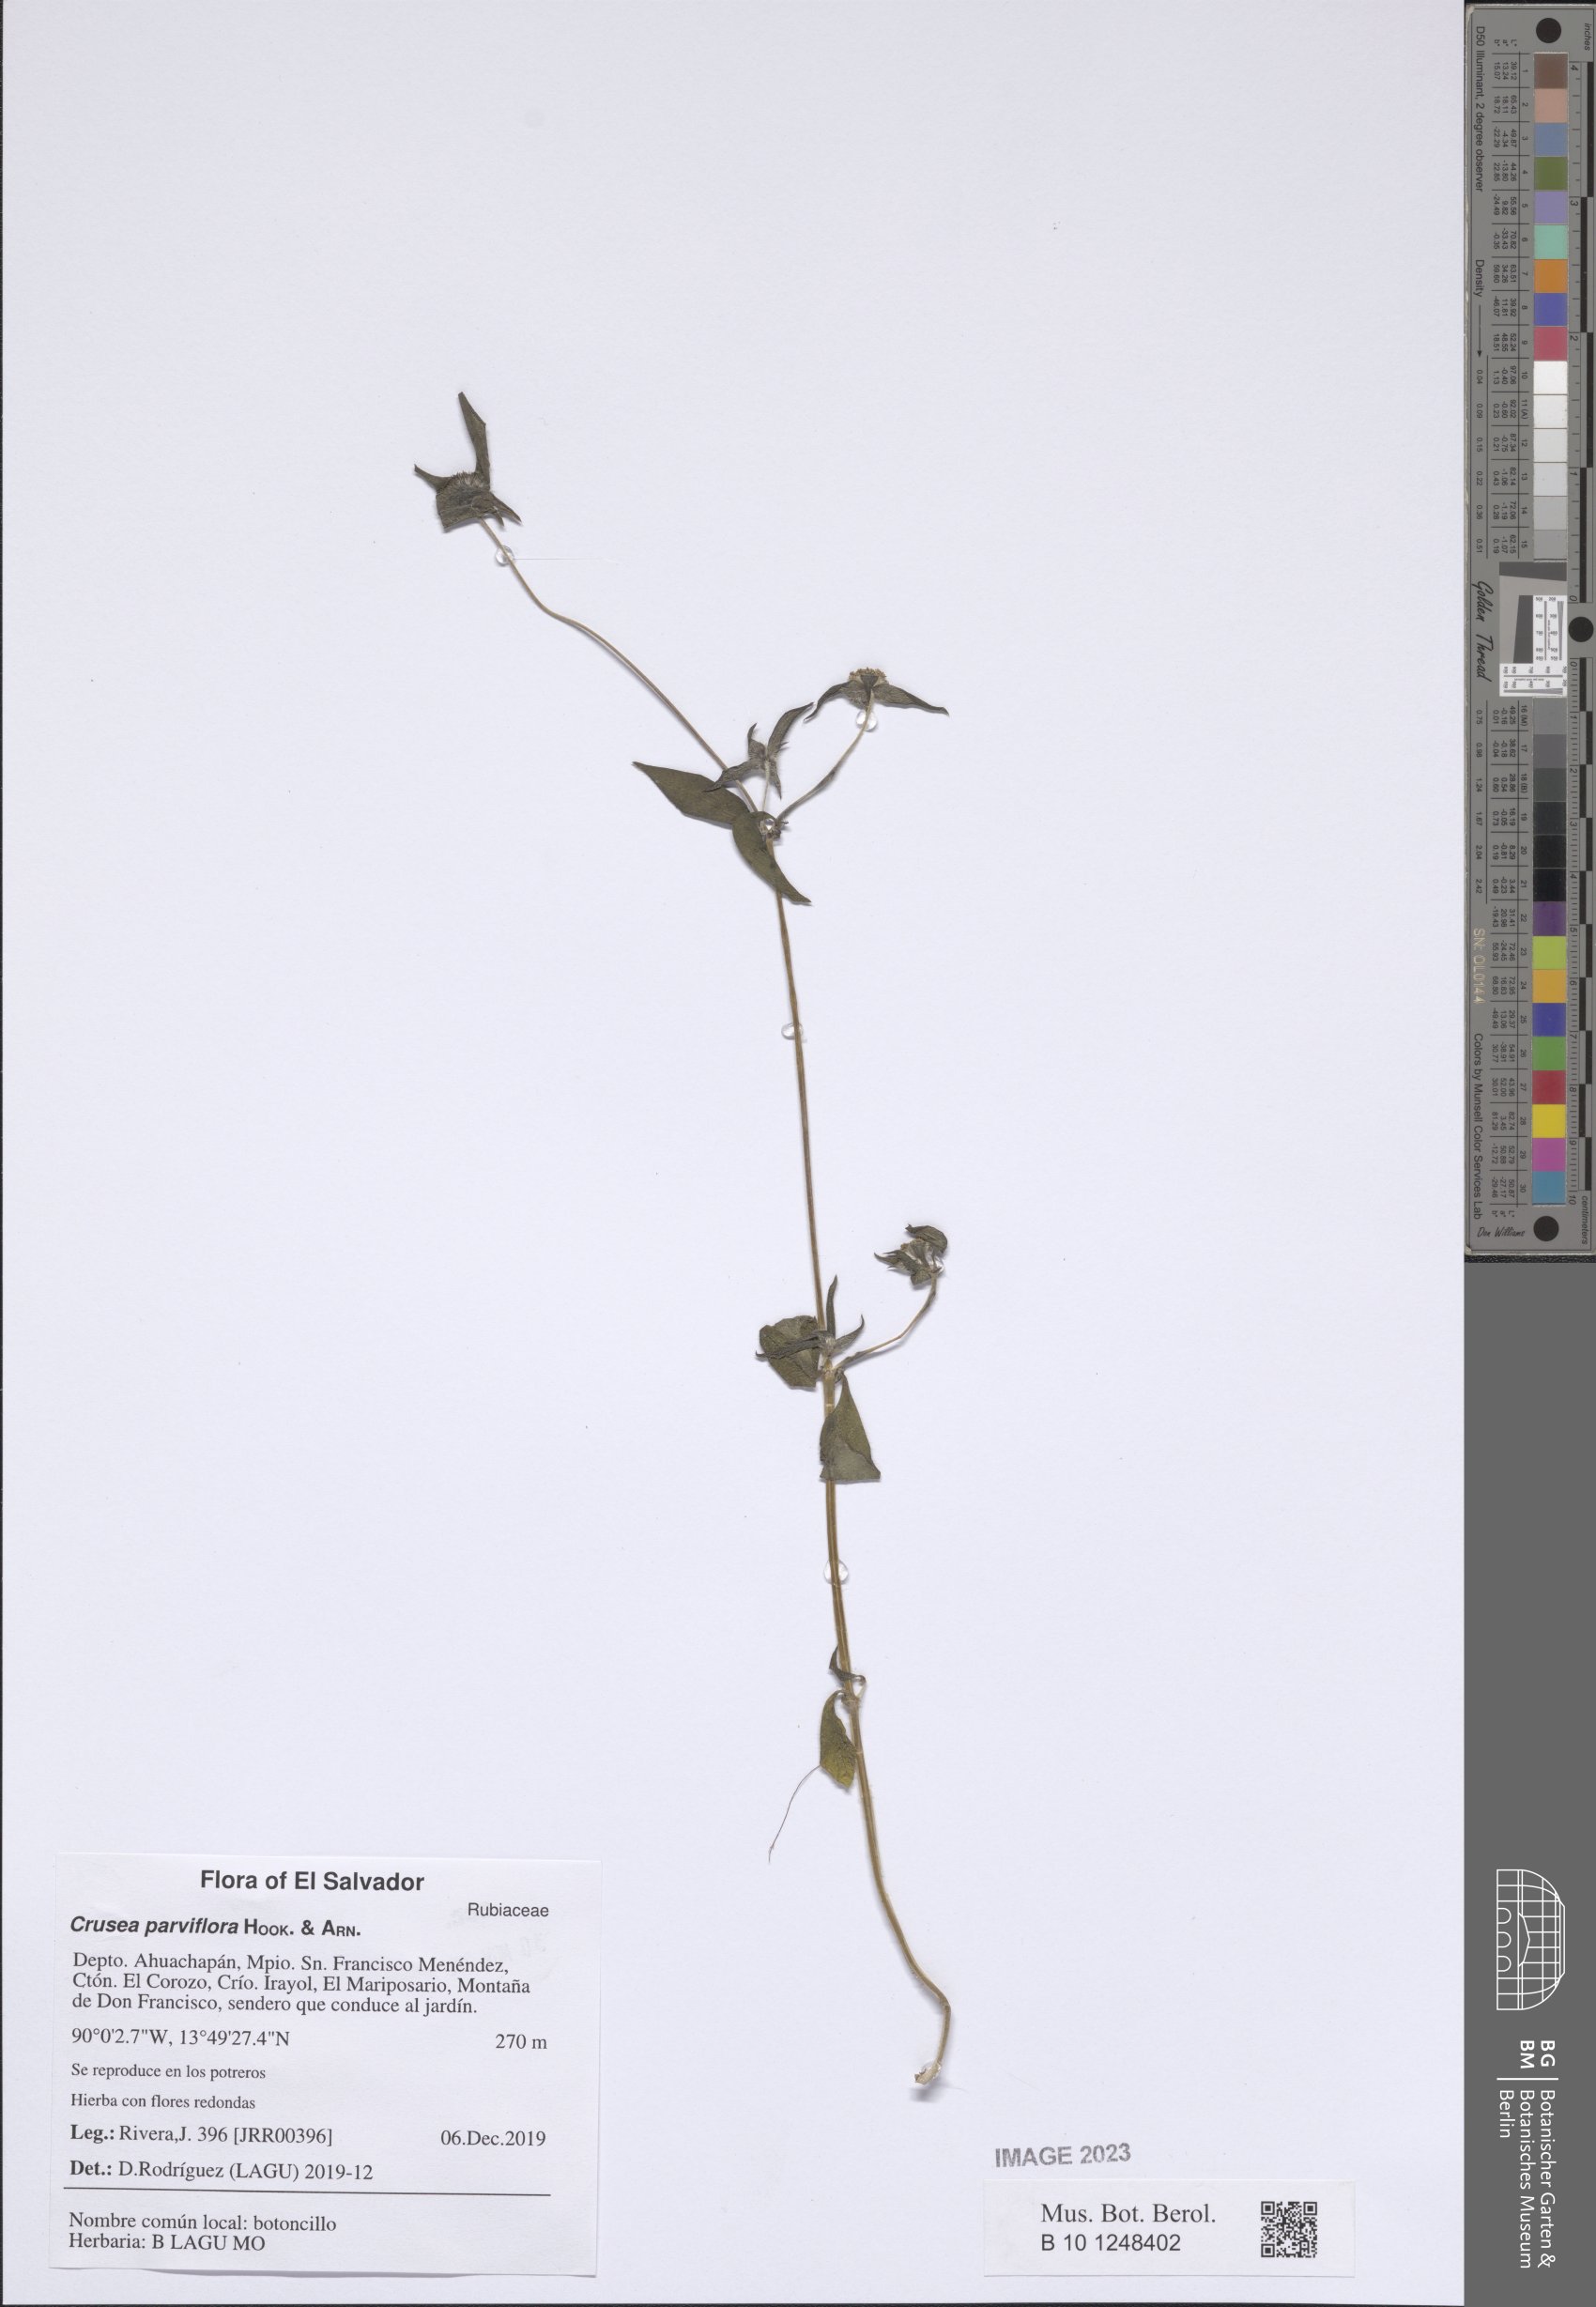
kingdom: Plantae
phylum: Tracheophyta
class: Magnoliopsida
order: Gentianales
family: Rubiaceae
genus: Crusea
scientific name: Crusea parviflora
